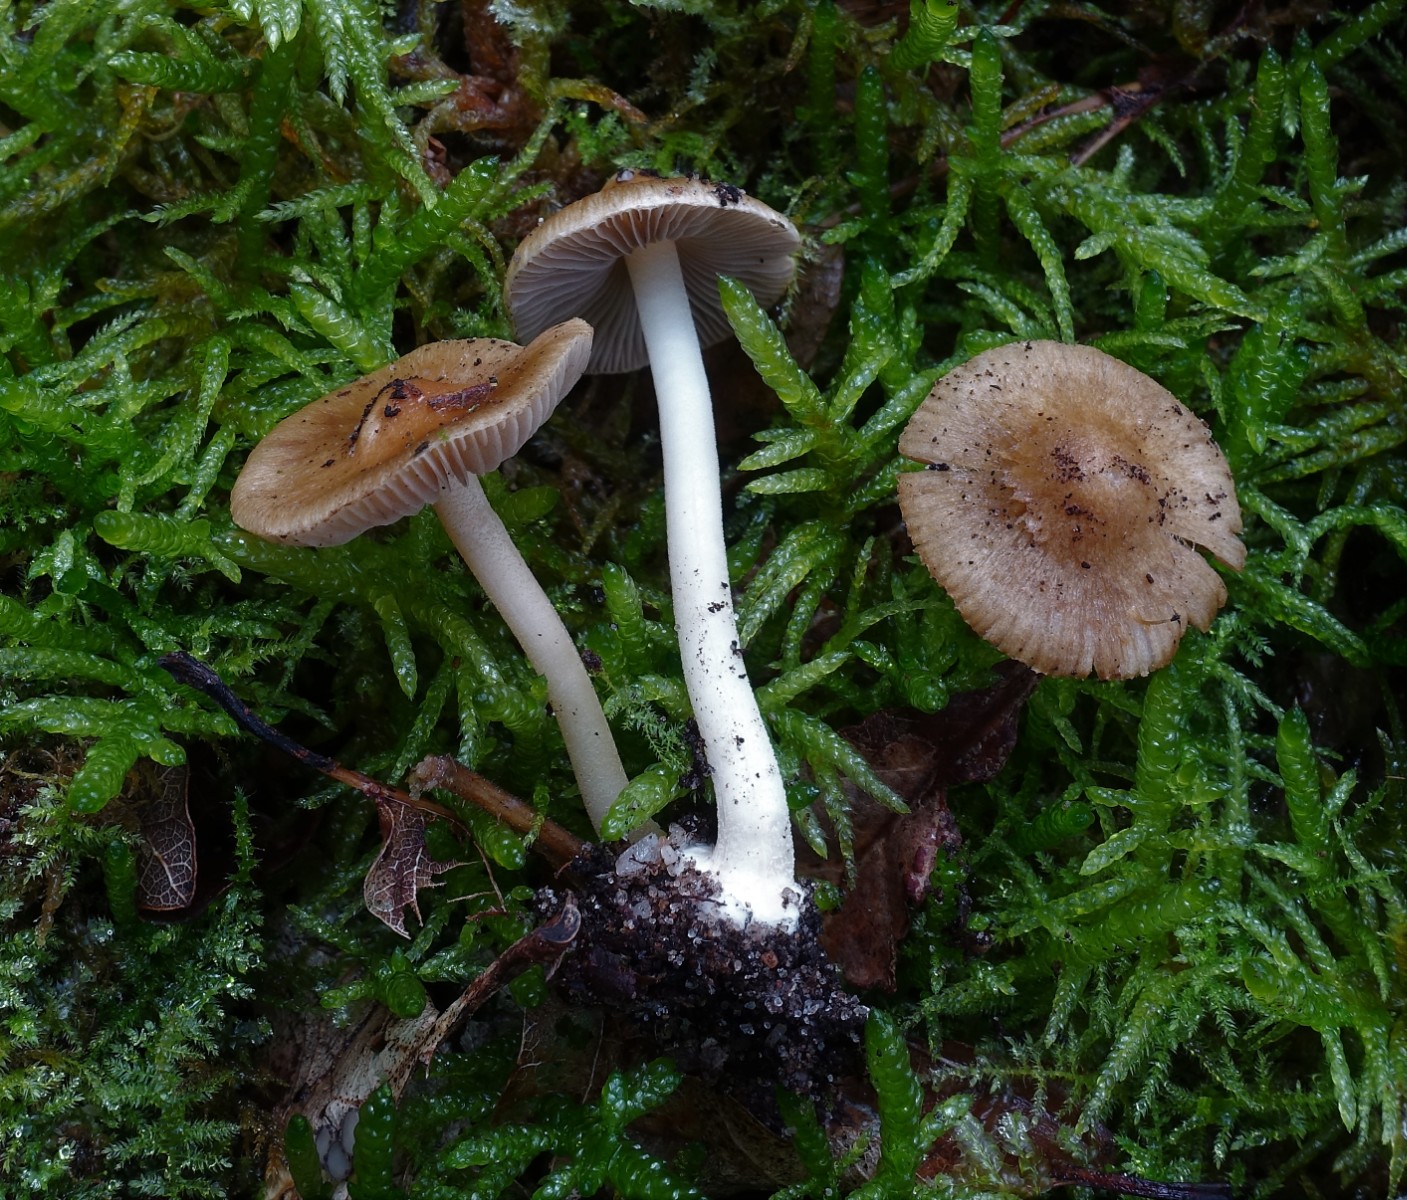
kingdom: Fungi
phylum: Basidiomycota
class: Agaricomycetes
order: Agaricales
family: Inocybaceae
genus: Inocybe
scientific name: Inocybe mixtilis
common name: randknoldet trævlhat
